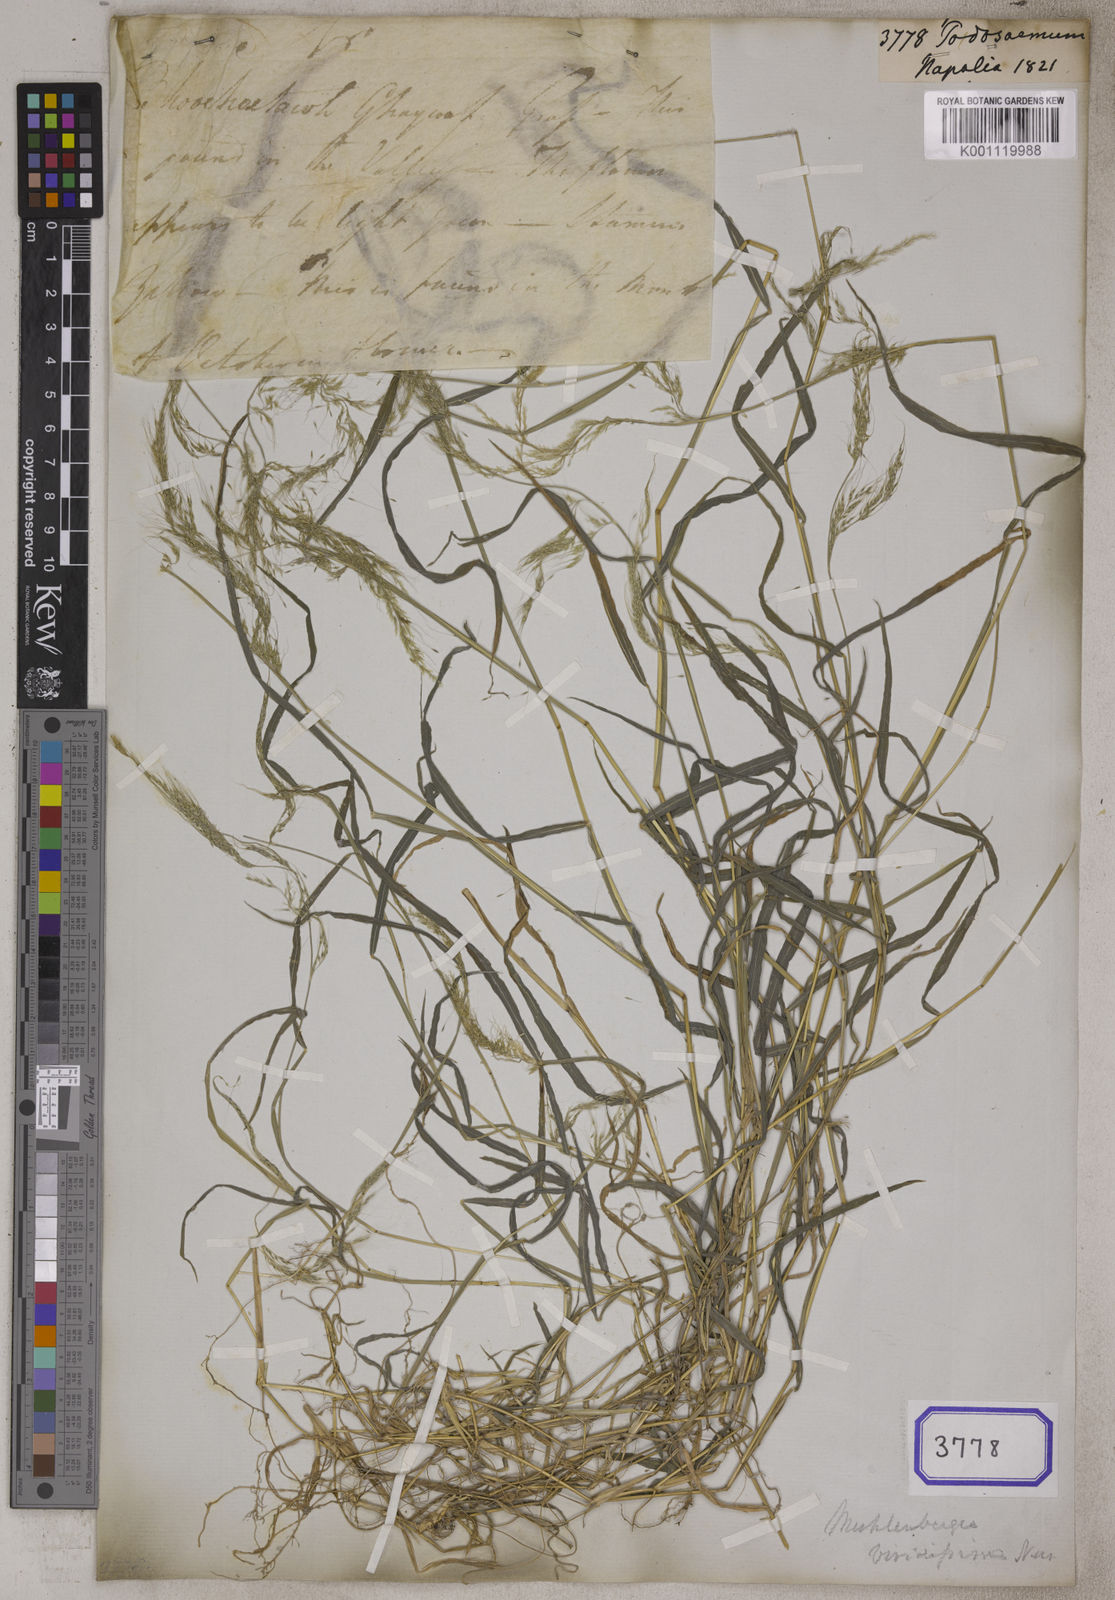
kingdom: Plantae
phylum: Tracheophyta
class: Liliopsida
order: Poales
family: Poaceae
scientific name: Poaceae
